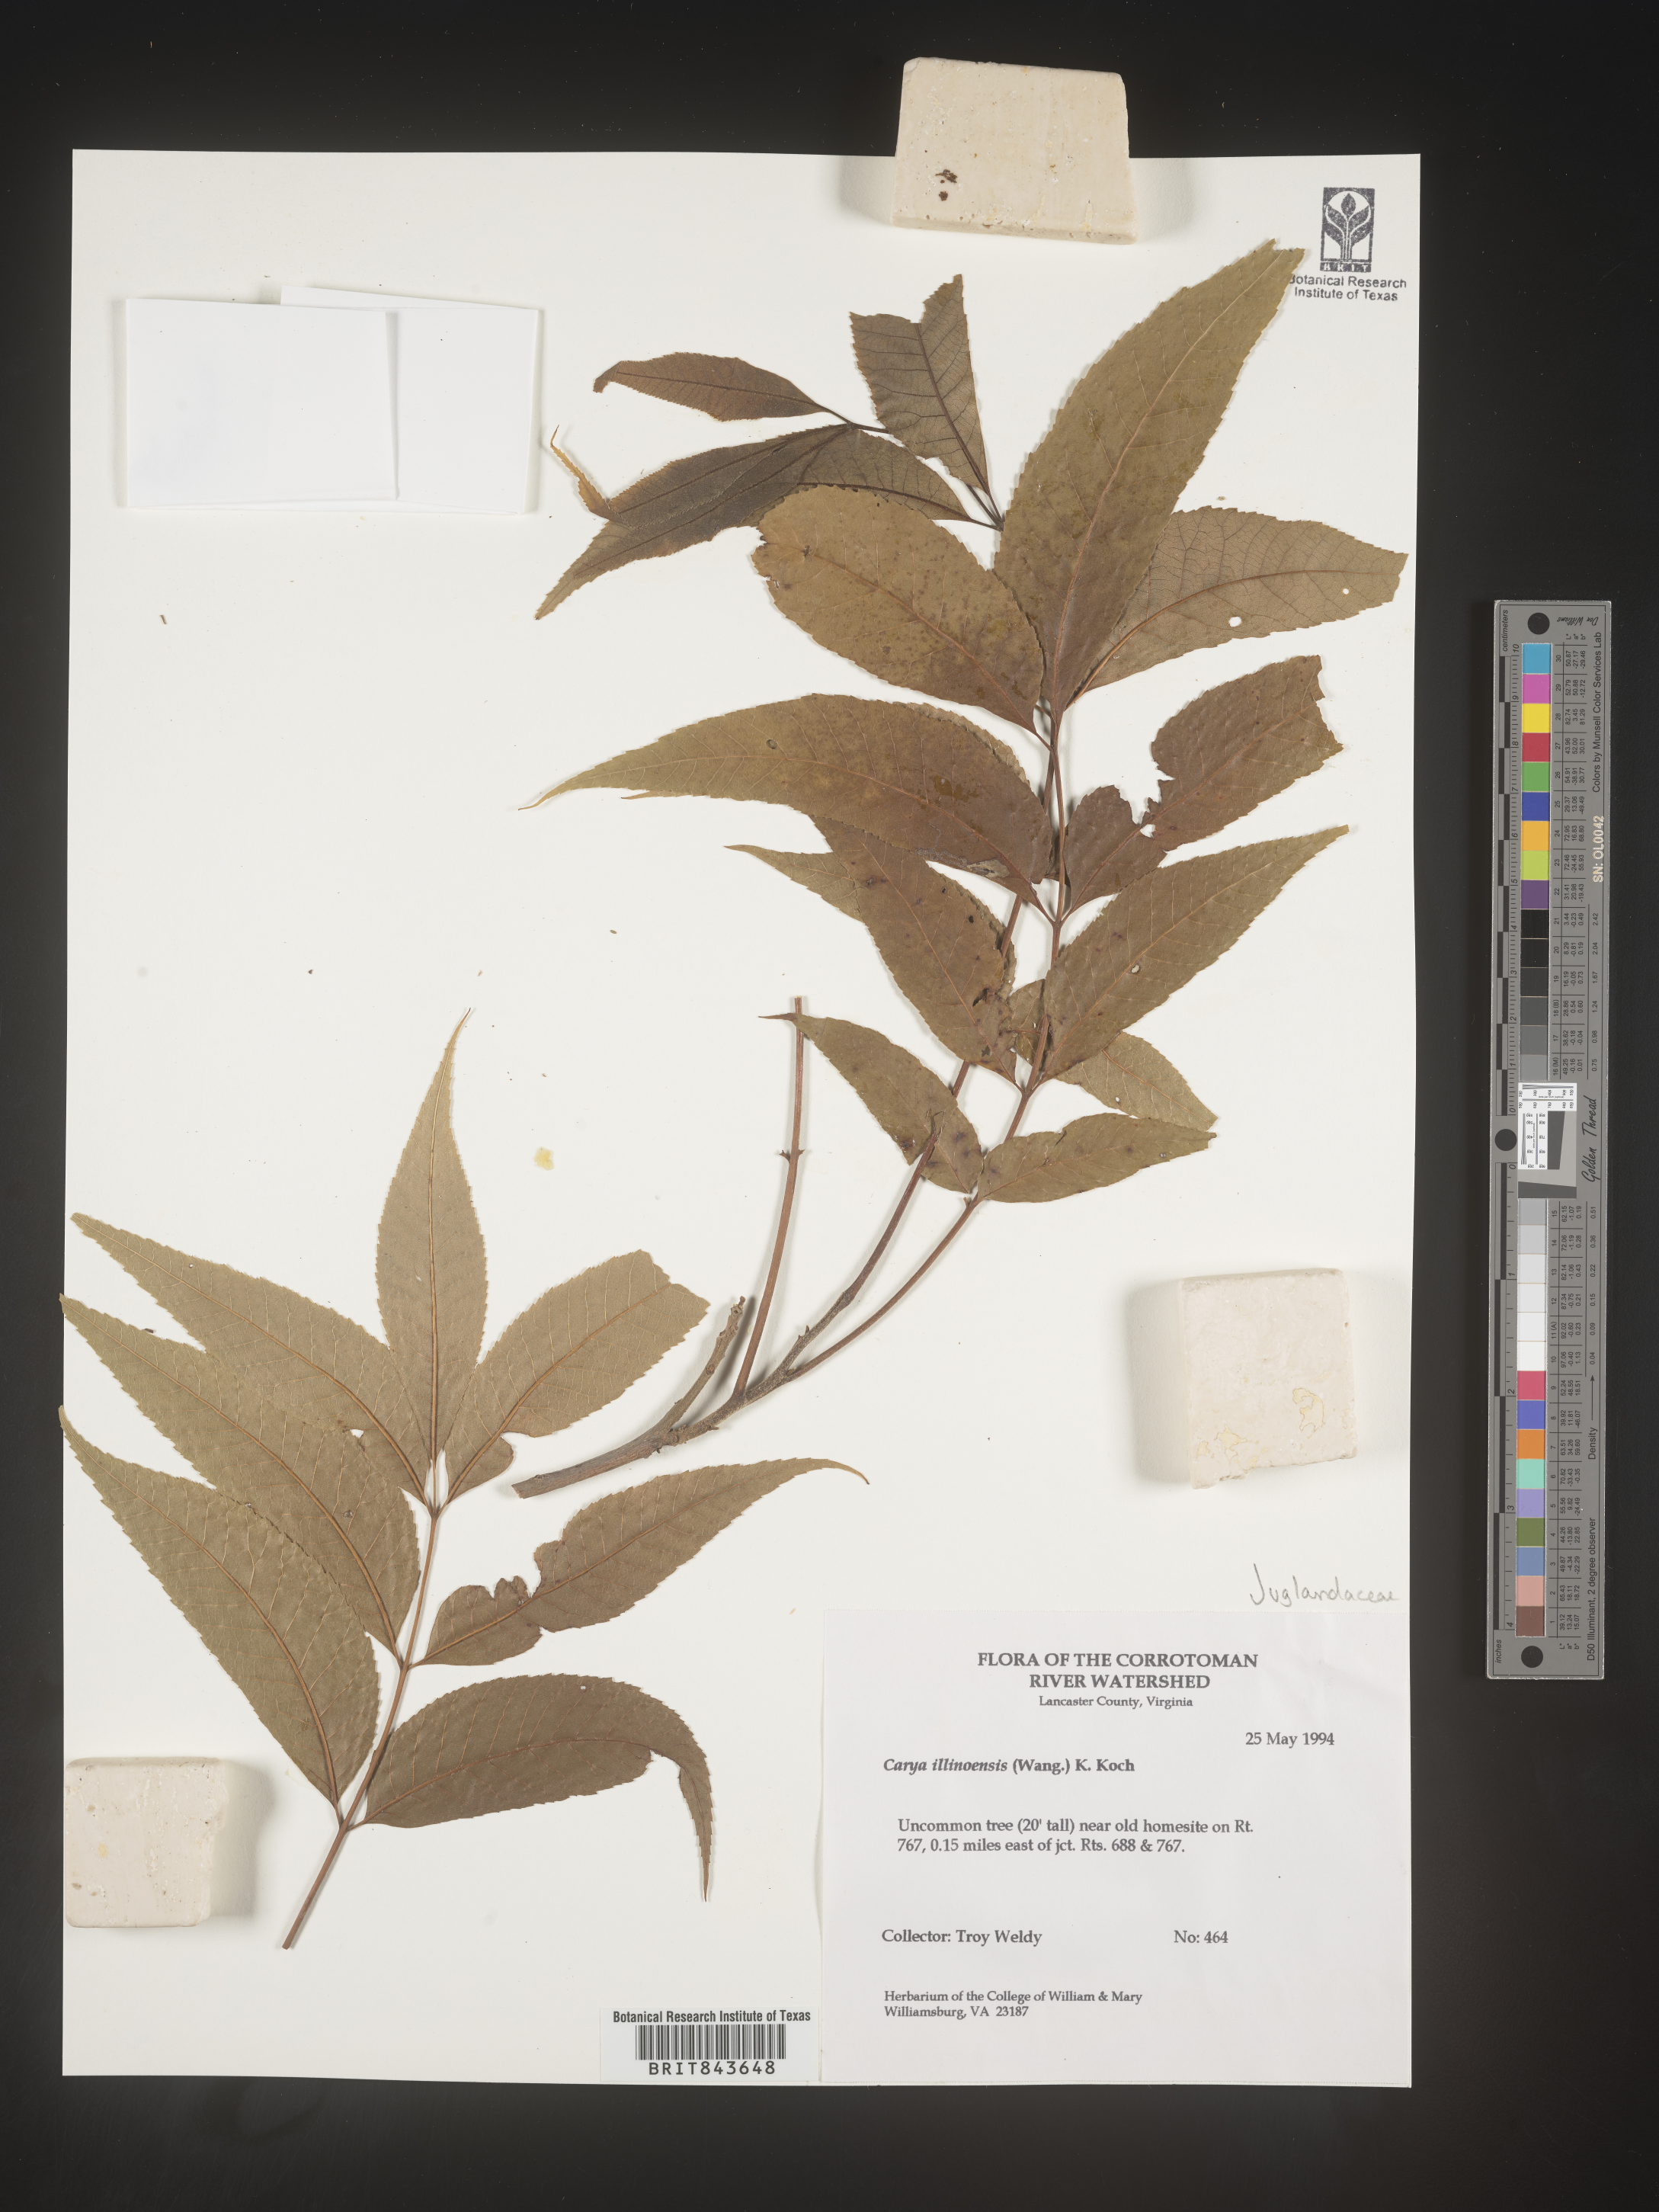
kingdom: Plantae
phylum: Tracheophyta
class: Magnoliopsida
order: Fagales
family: Juglandaceae
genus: Carya
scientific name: Carya illinoinensis
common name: Pecan
